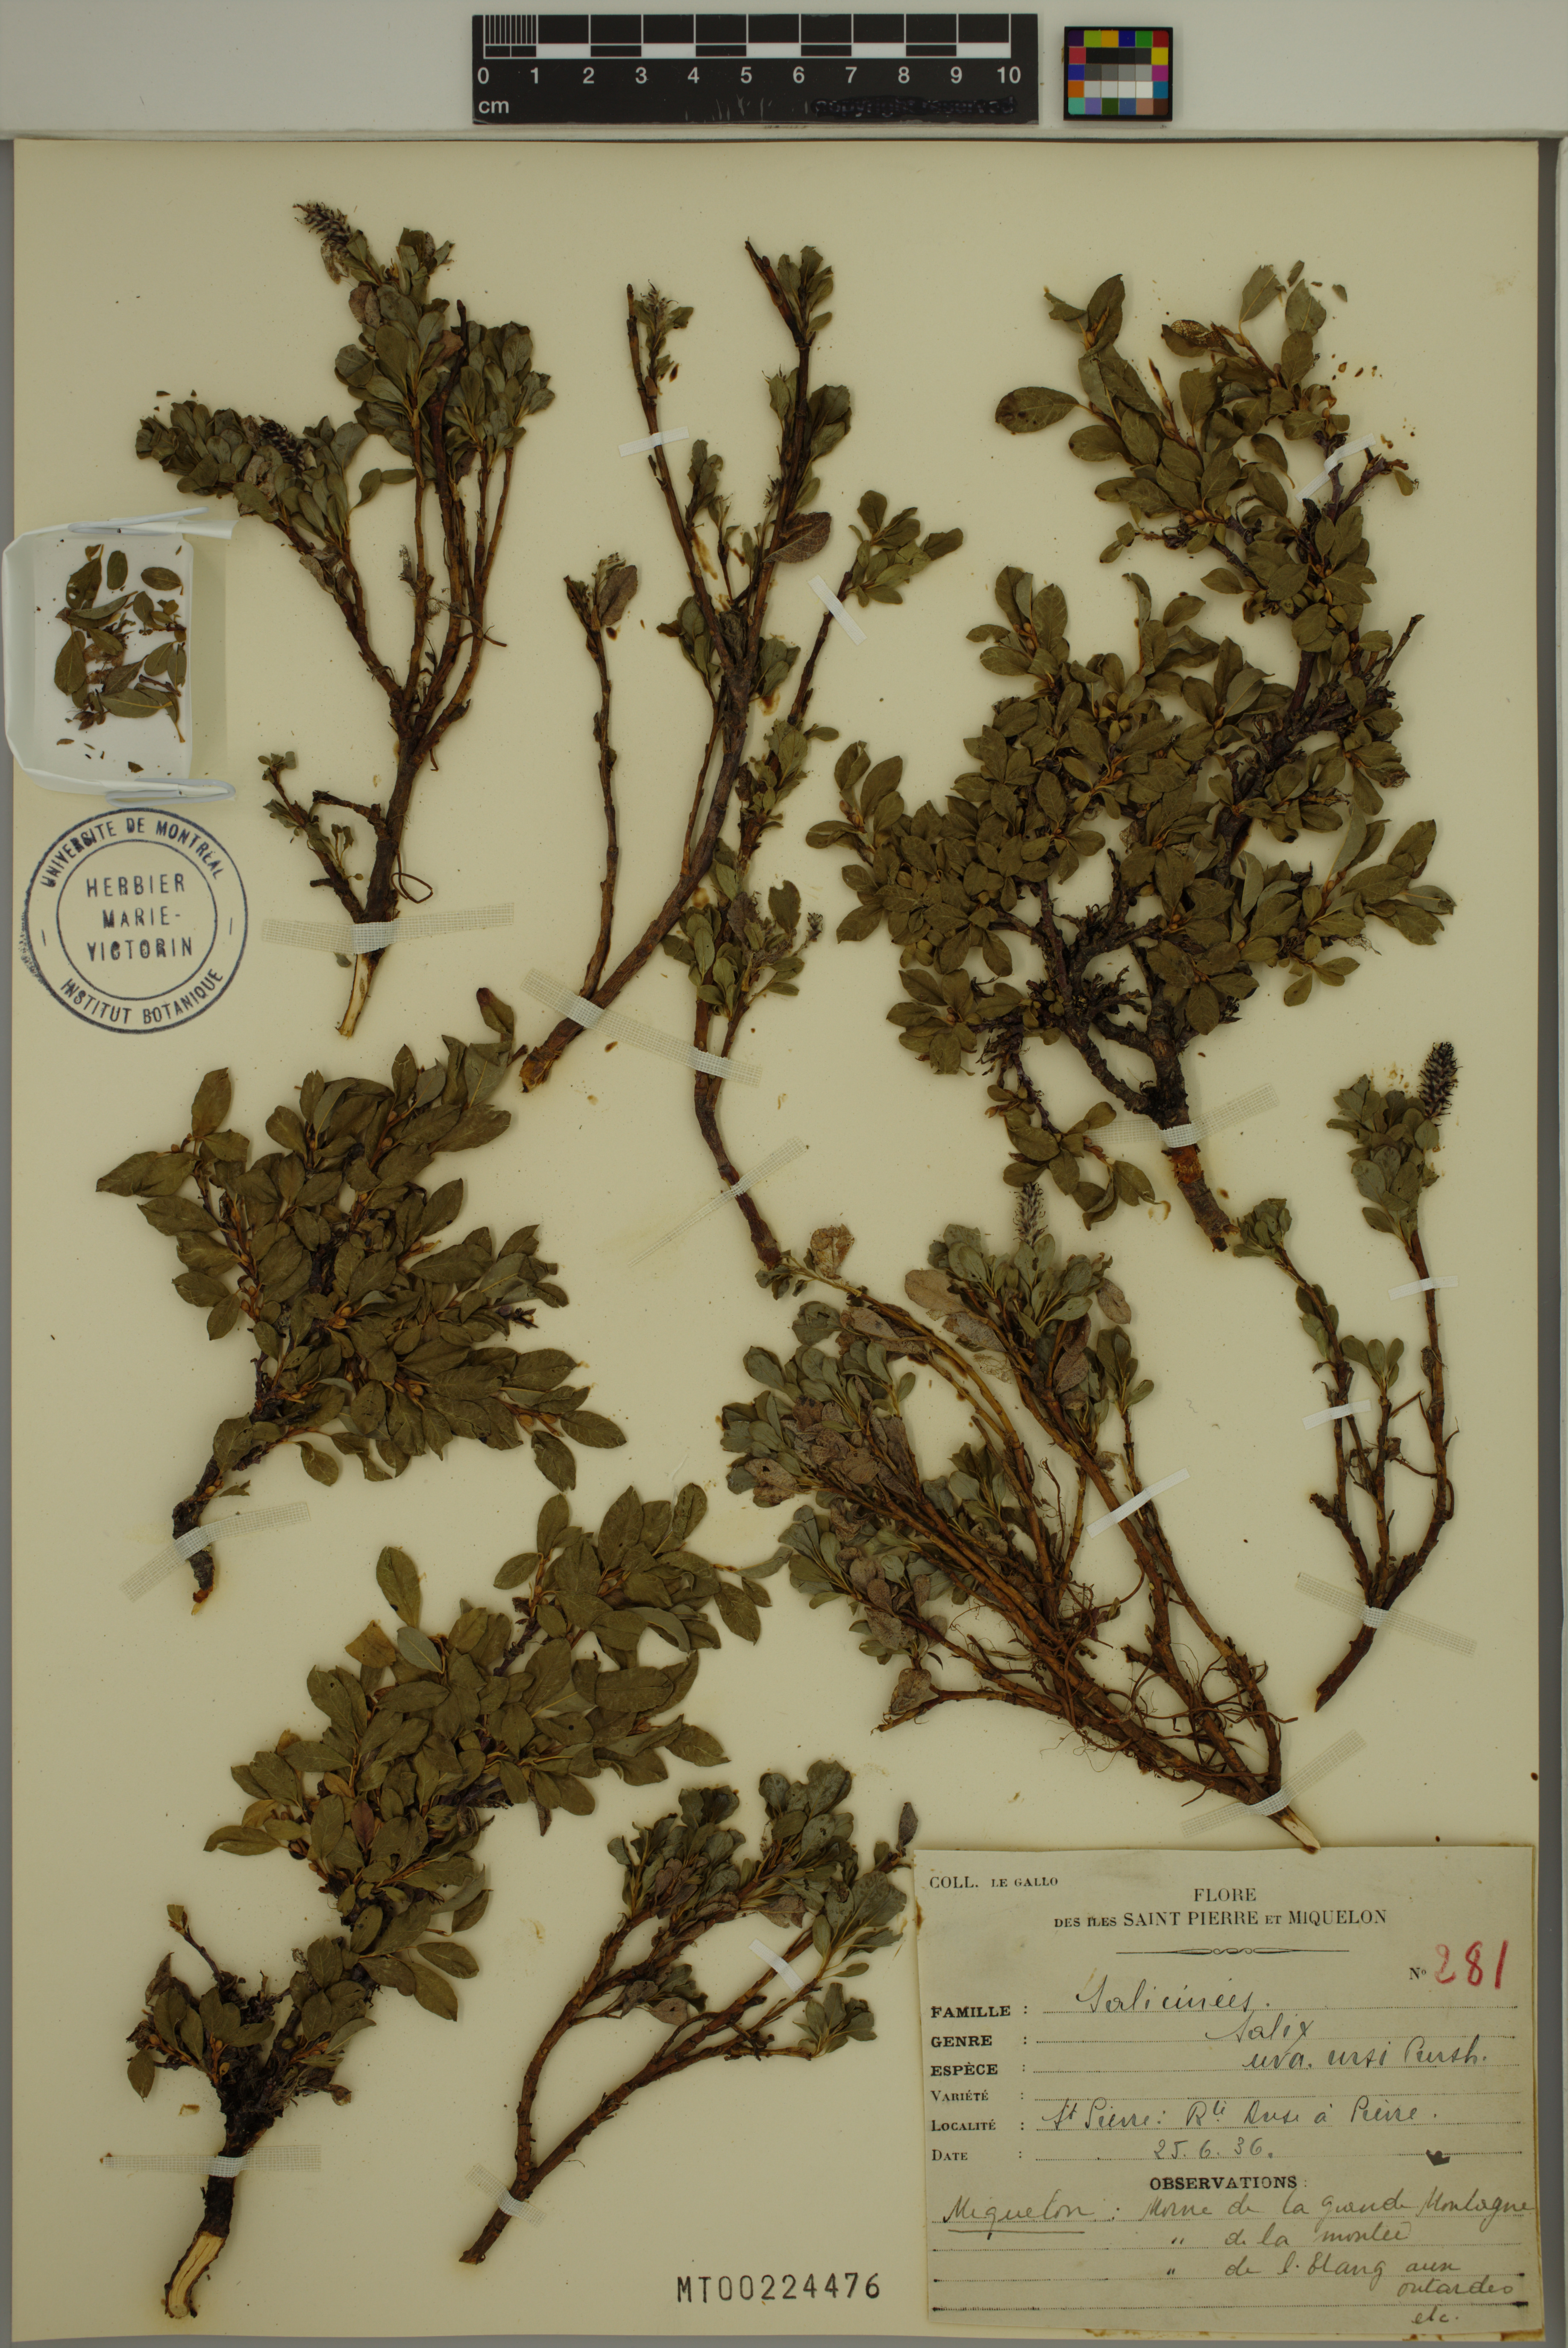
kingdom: Plantae
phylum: Tracheophyta
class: Magnoliopsida
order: Malpighiales
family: Salicaceae
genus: Salix
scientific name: Salix uva-ursi
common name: Bearberry willow
